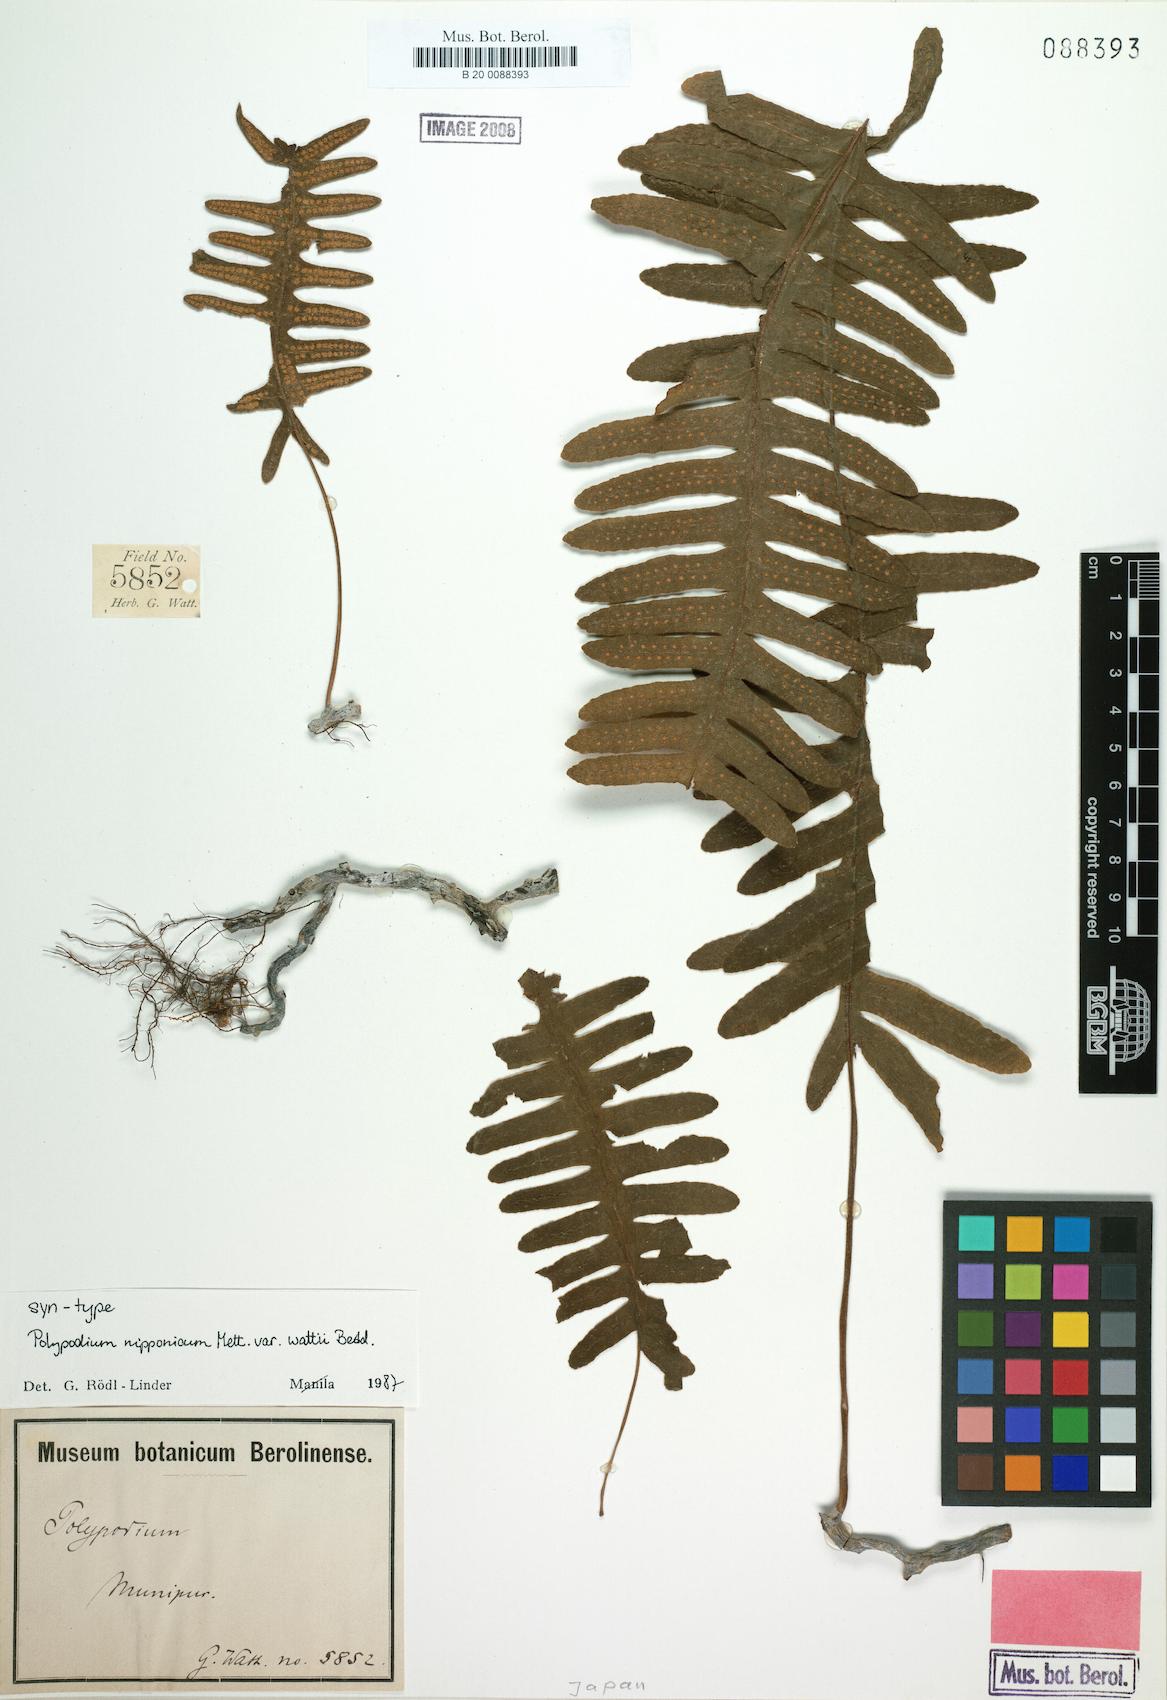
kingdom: Plantae
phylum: Tracheophyta
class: Polypodiopsida
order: Polypodiales
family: Polypodiaceae
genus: Goniophlebium
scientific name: Goniophlebium wattii
